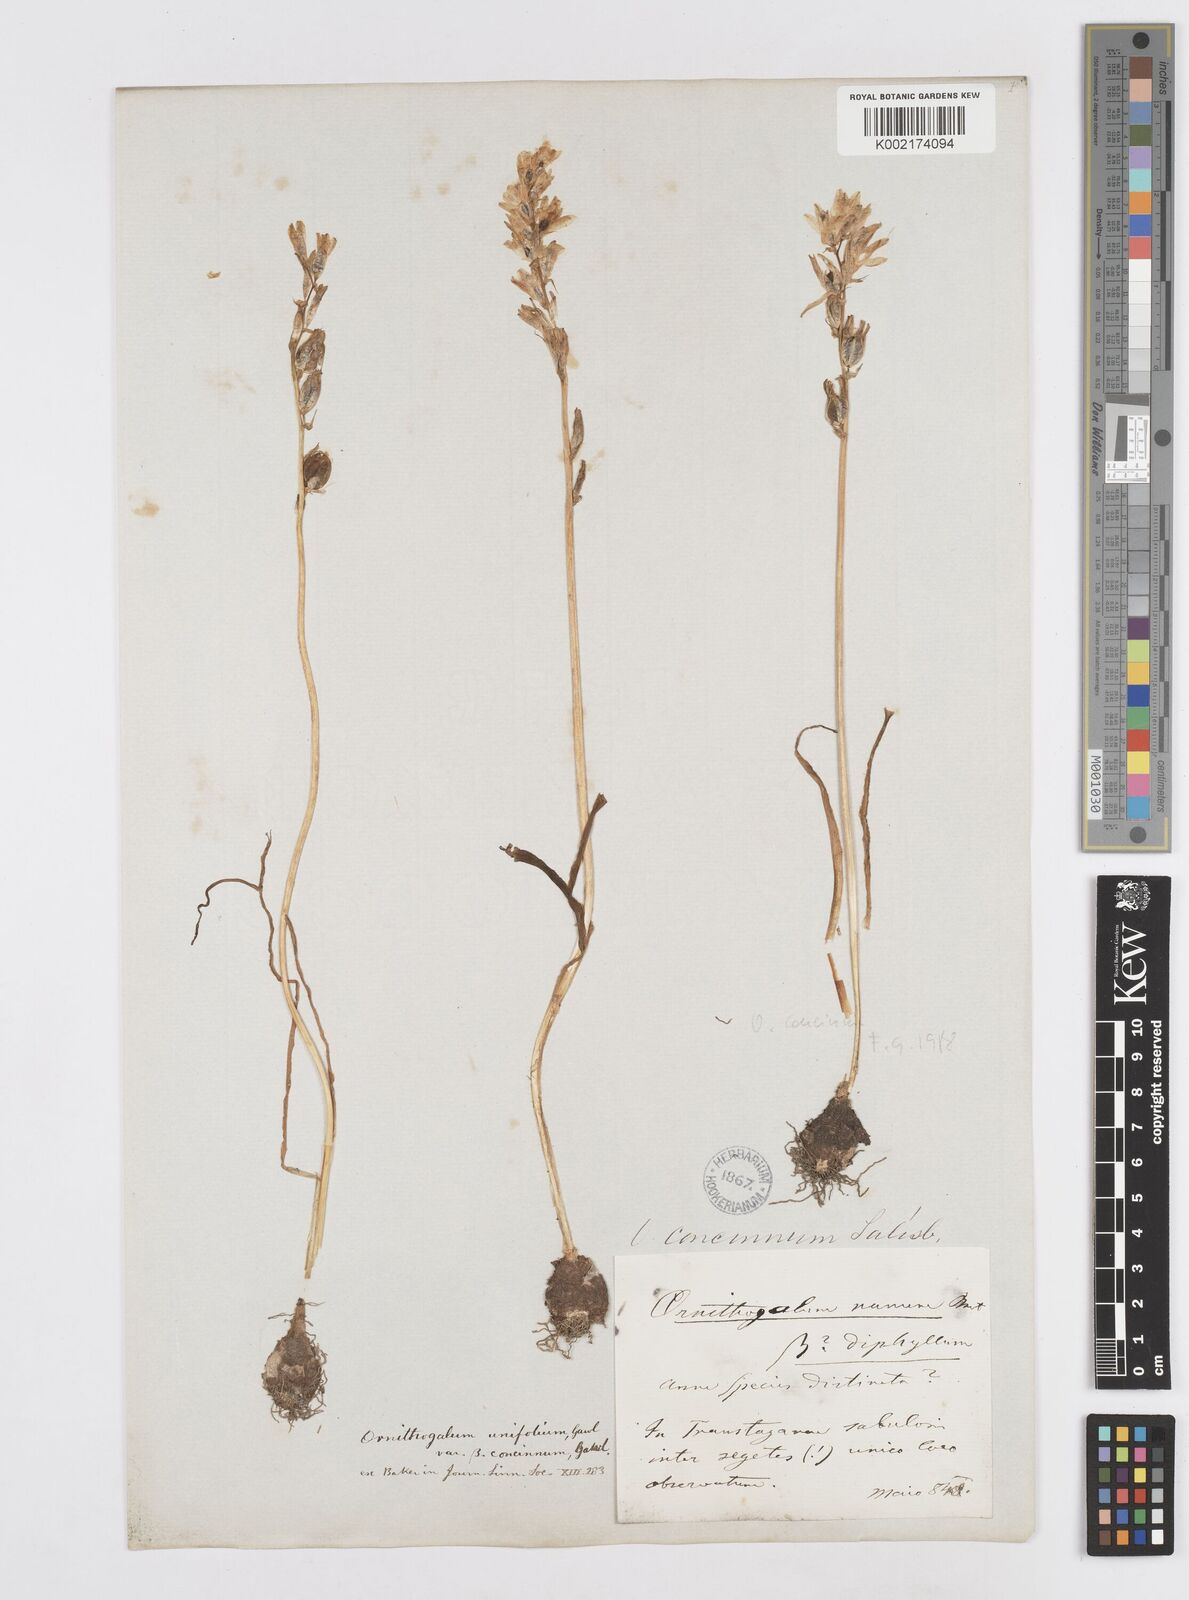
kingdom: Plantae
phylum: Tracheophyta
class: Liliopsida
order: Asparagales
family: Asparagaceae
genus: Ornithogalum
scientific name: Ornithogalum concinnum
